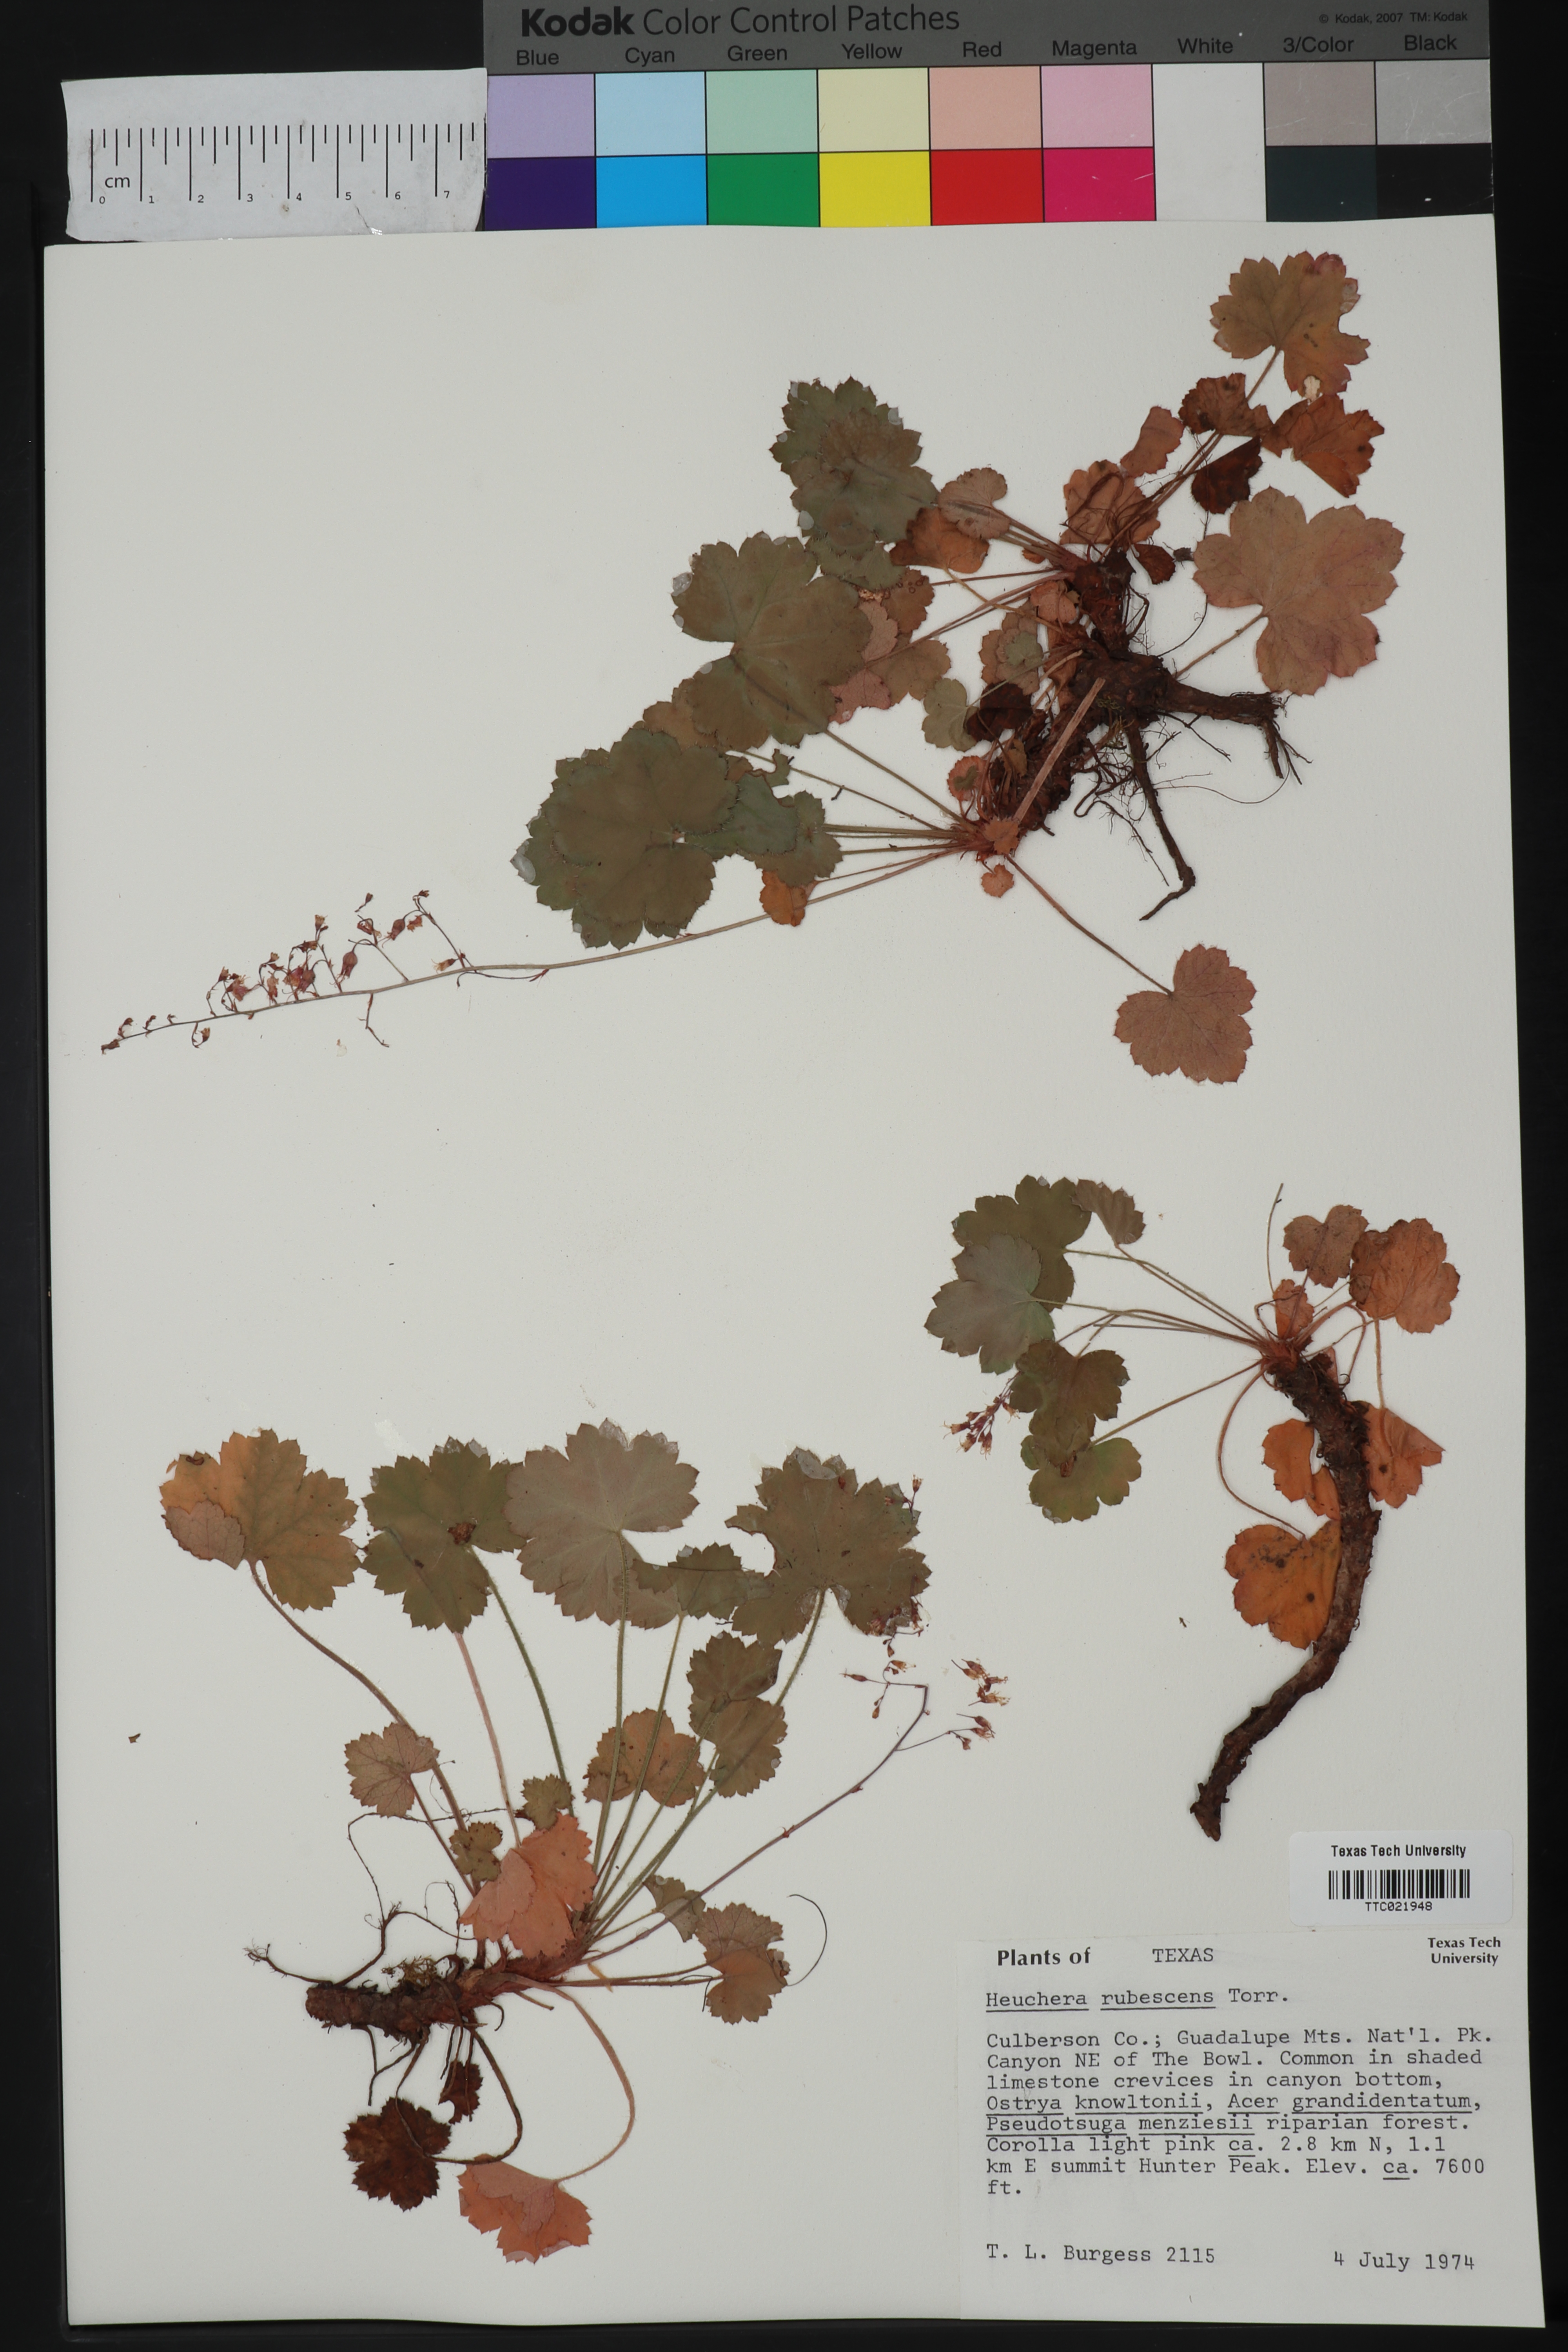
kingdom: Plantae
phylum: Tracheophyta
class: Magnoliopsida
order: Saxifragales
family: Saxifragaceae
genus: Heuchera
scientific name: Heuchera rubescens
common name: Jack-o'the-rocks
